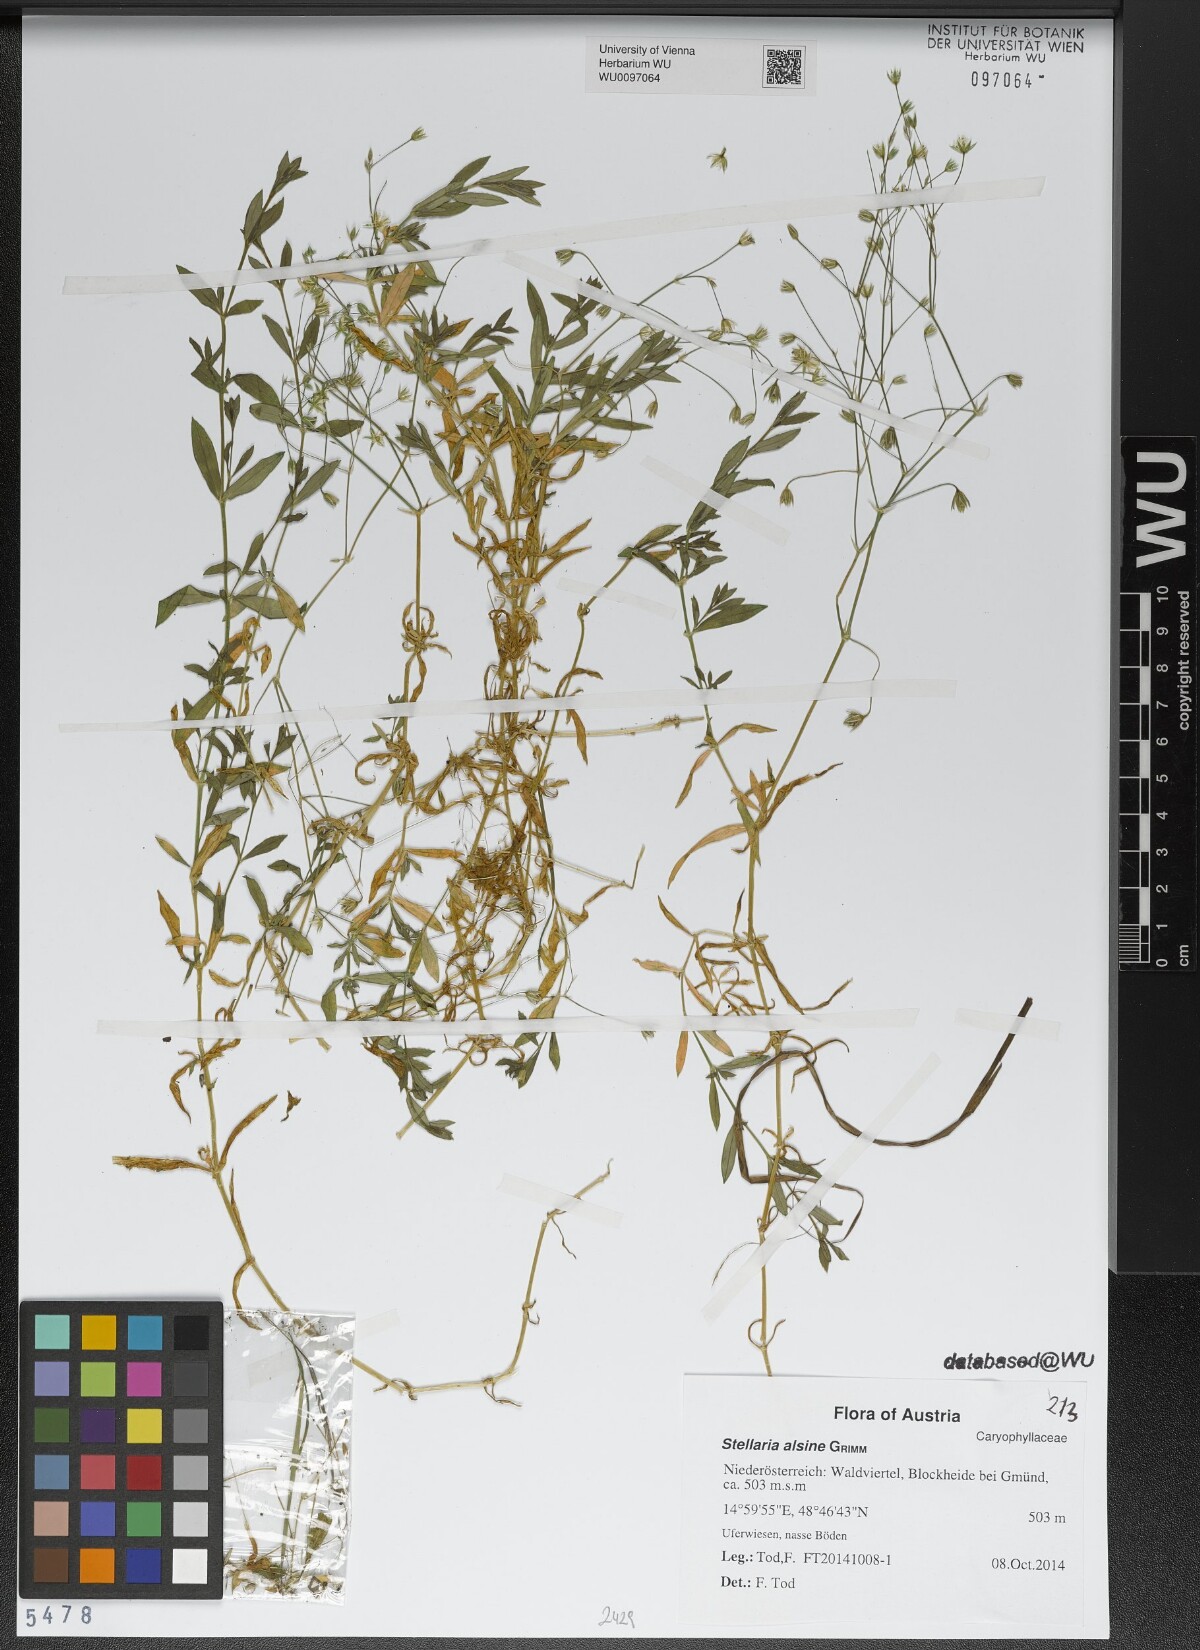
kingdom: Plantae
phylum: Tracheophyta
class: Magnoliopsida
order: Caryophyllales
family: Caryophyllaceae
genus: Stellaria
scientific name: Stellaria alsine
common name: Bog stitchwort
